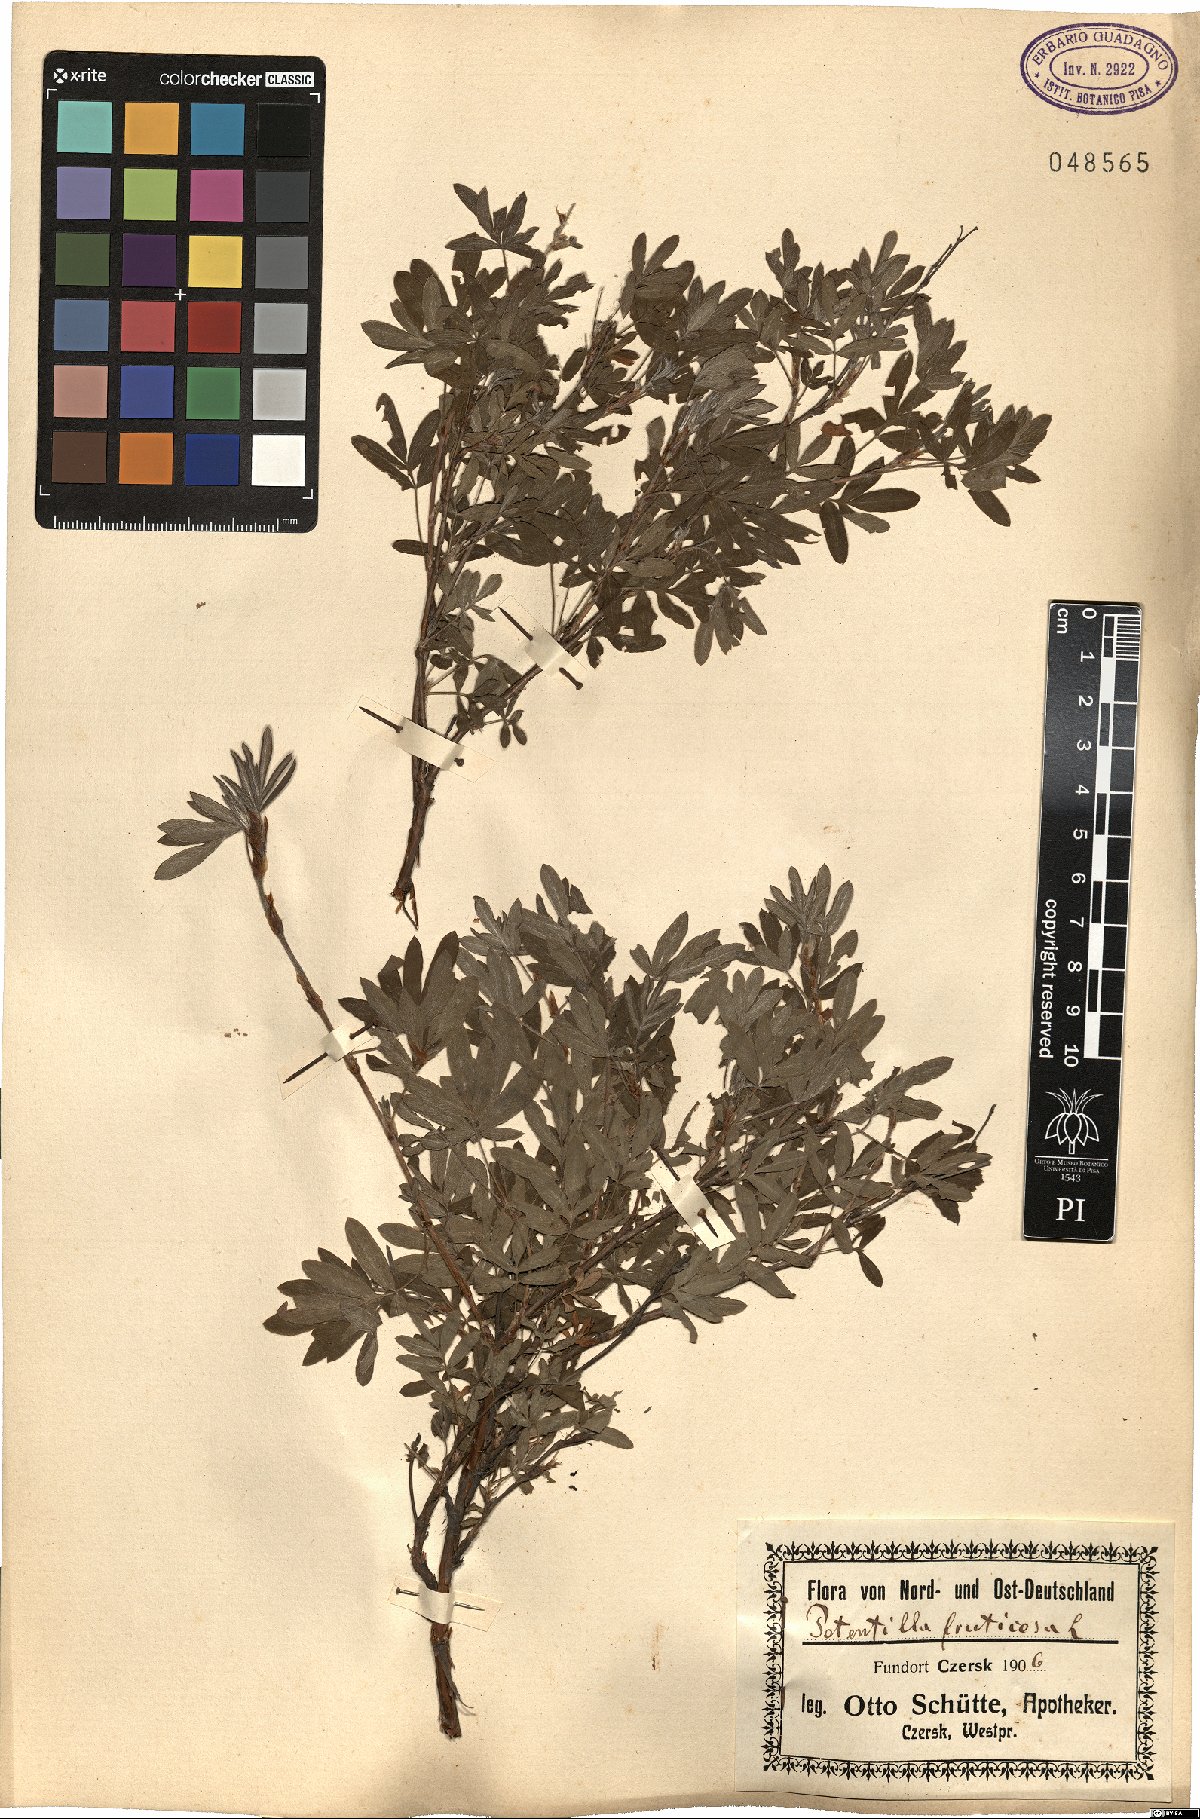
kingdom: Plantae
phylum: Tracheophyta
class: Magnoliopsida
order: Rosales
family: Rosaceae
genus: Dasiphora
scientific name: Dasiphora fruticosa
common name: Shrubby cinquefoil
